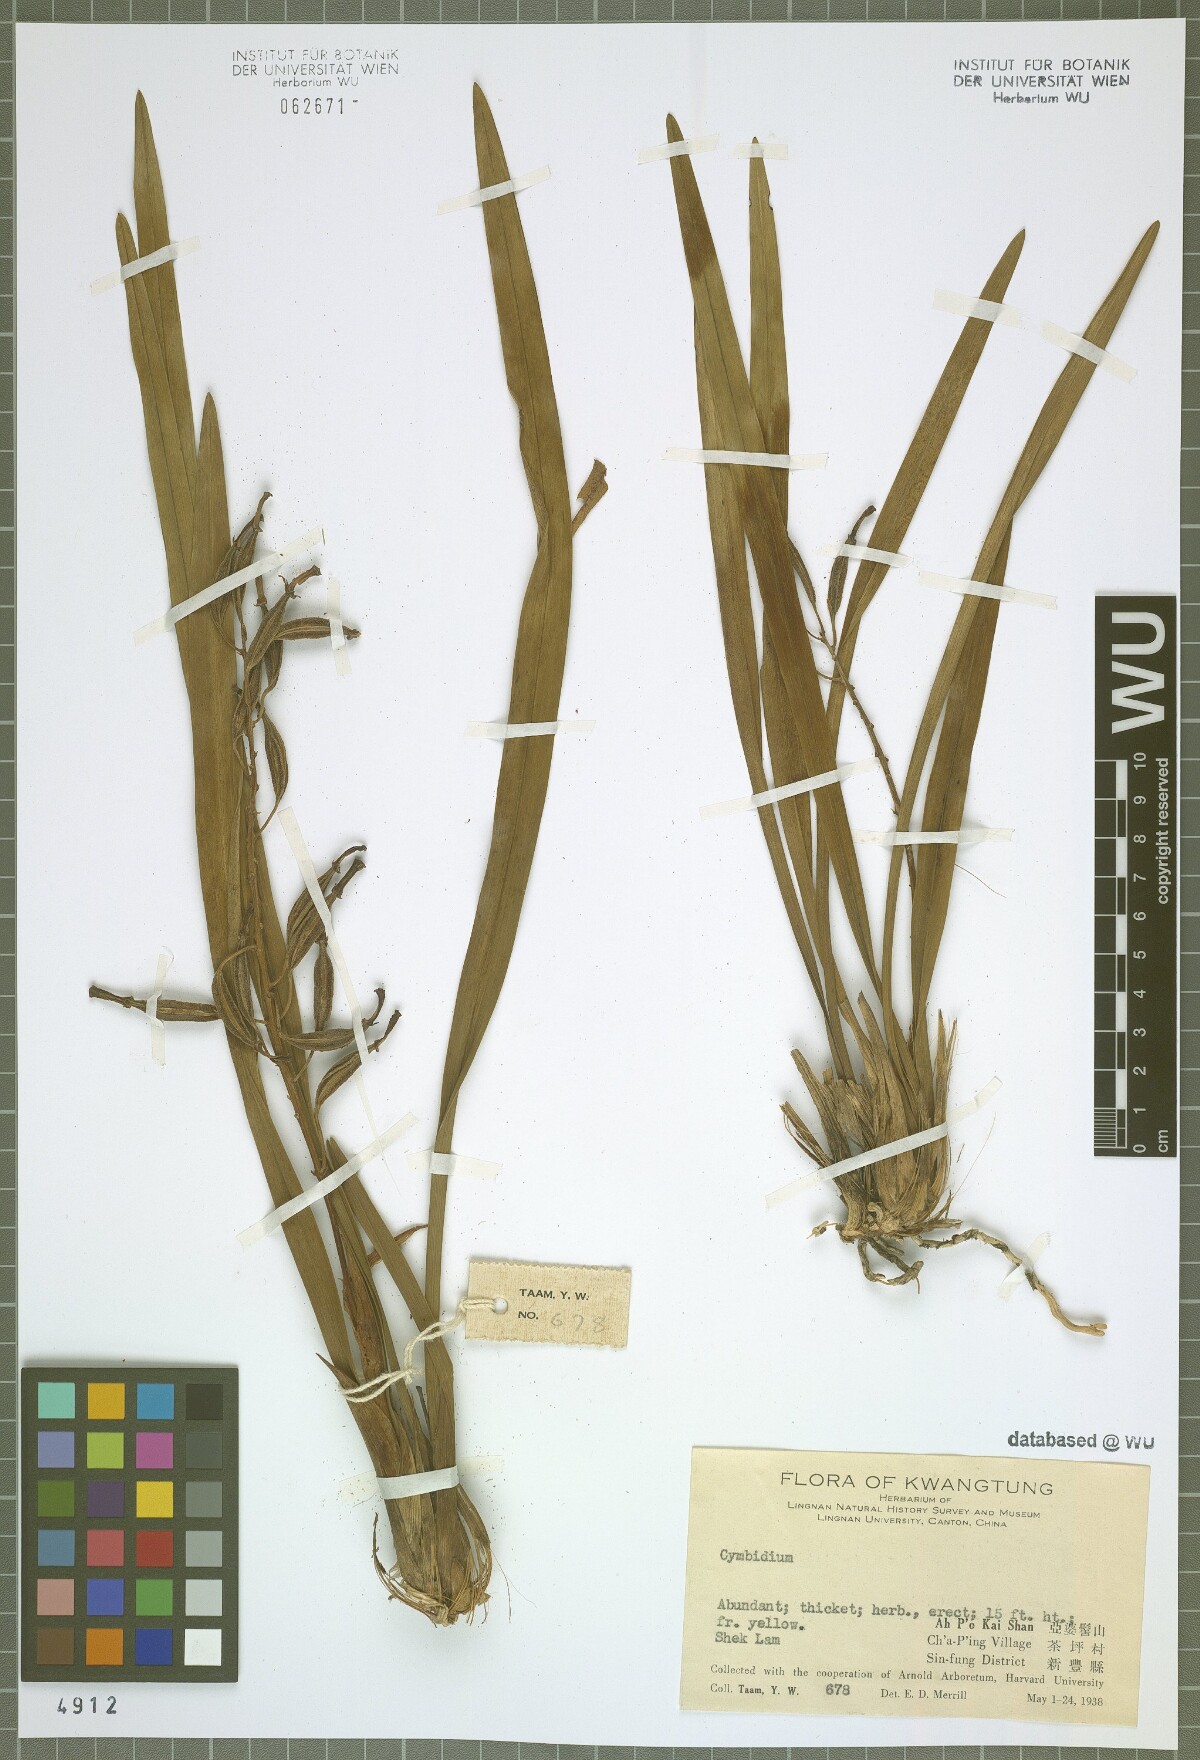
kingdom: Plantae
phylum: Tracheophyta
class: Liliopsida
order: Asparagales
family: Orchidaceae
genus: Cymbidium
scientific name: Cymbidium
